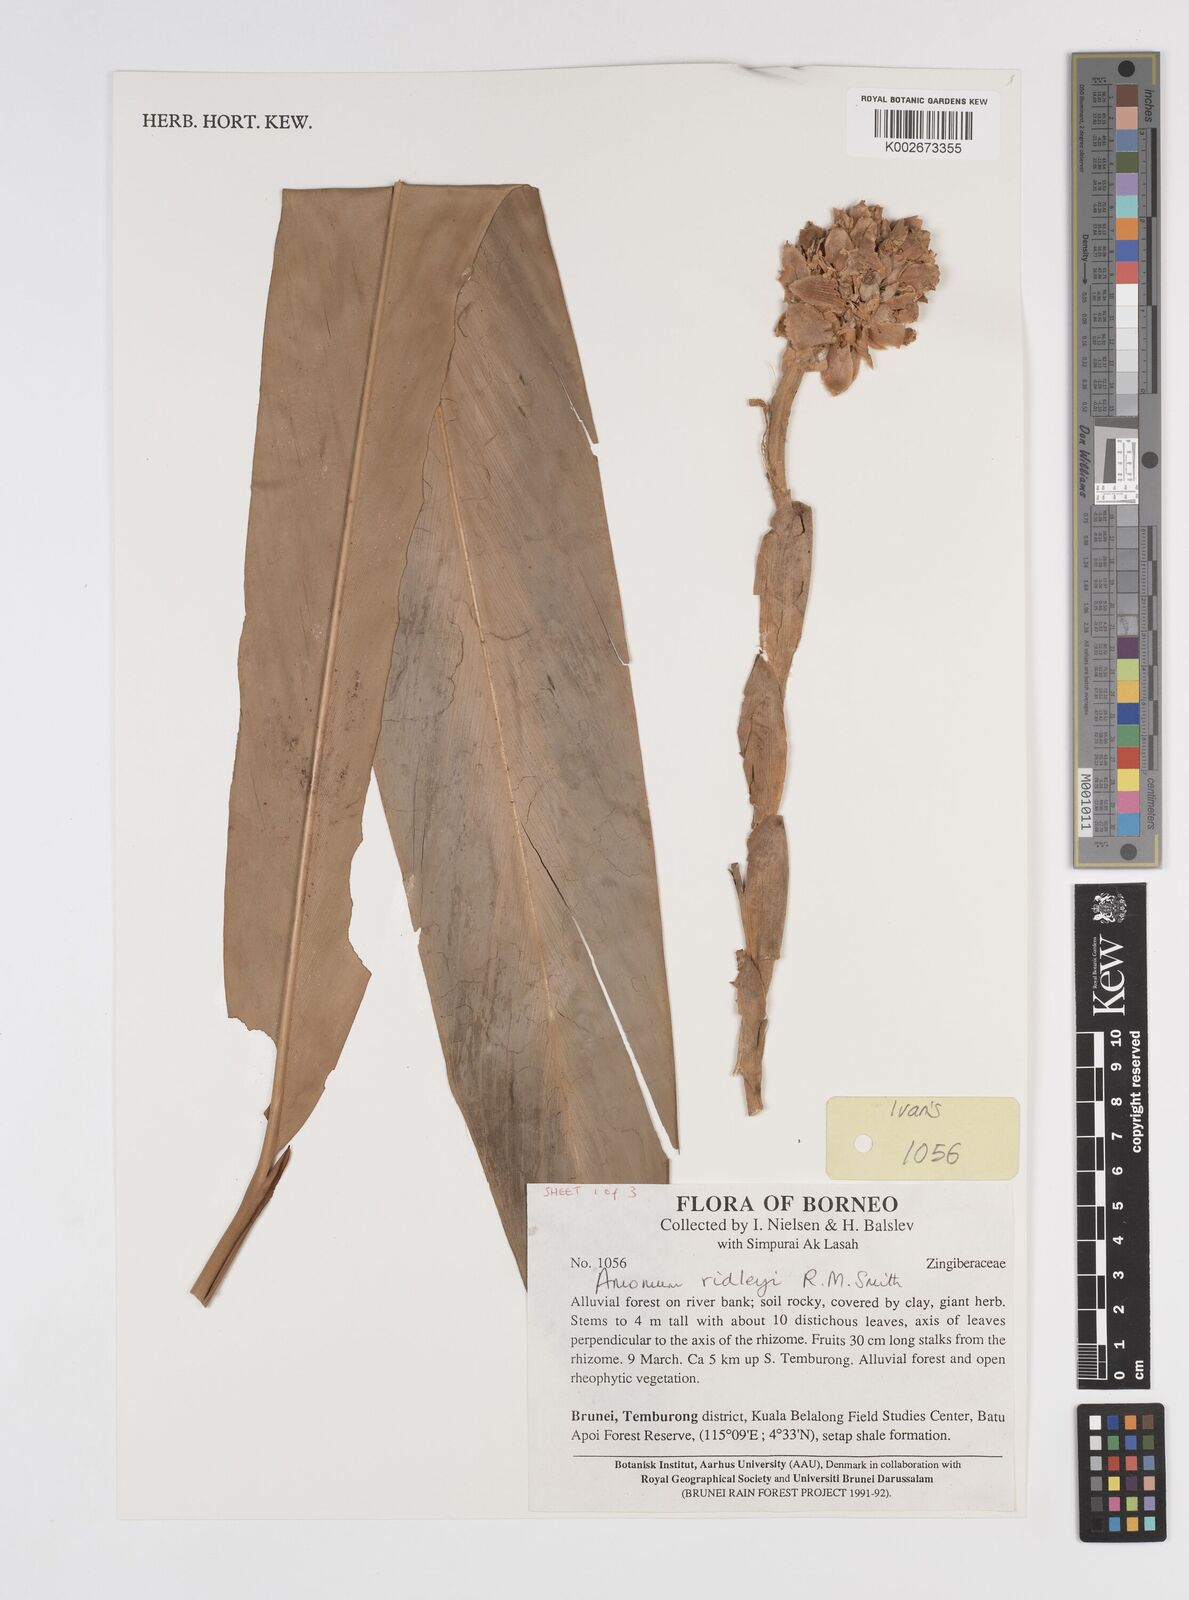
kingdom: Plantae
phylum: Tracheophyta
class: Liliopsida
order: Zingiberales
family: Zingiberaceae
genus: Amomum
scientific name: Amomum
